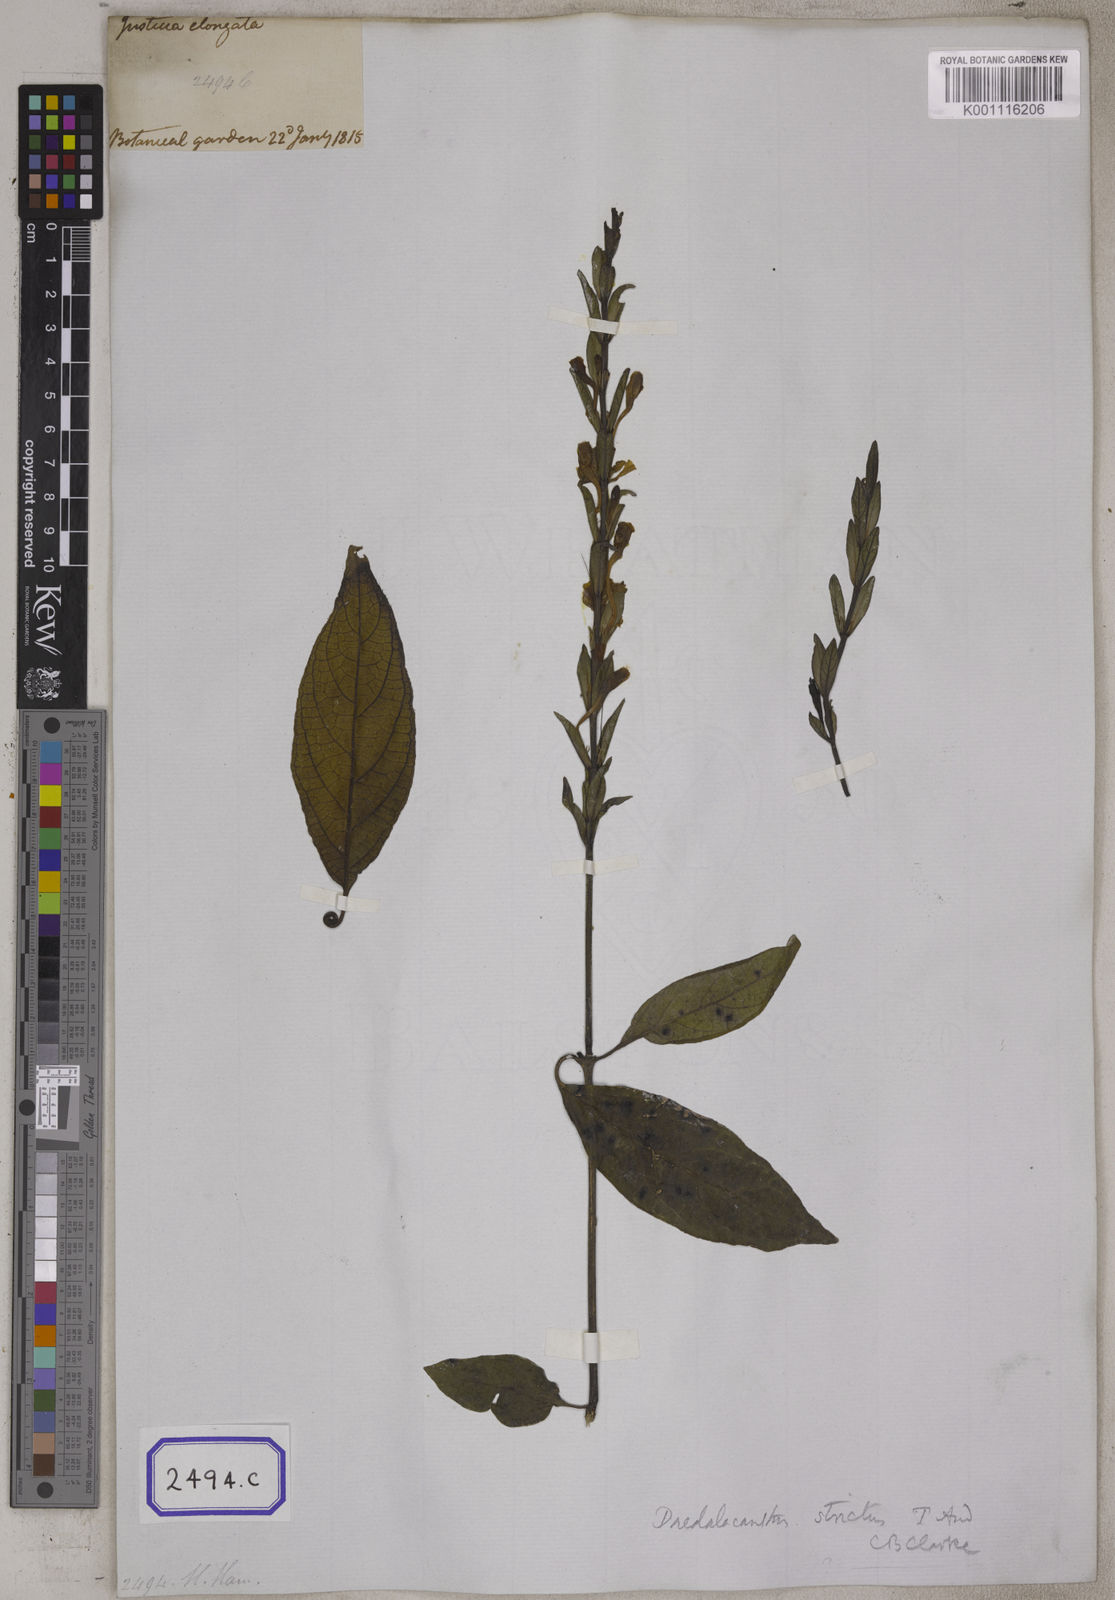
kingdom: Plantae
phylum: Tracheophyta
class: Magnoliopsida
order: Lamiales
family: Acanthaceae
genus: Eranthemum
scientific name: Eranthemum
